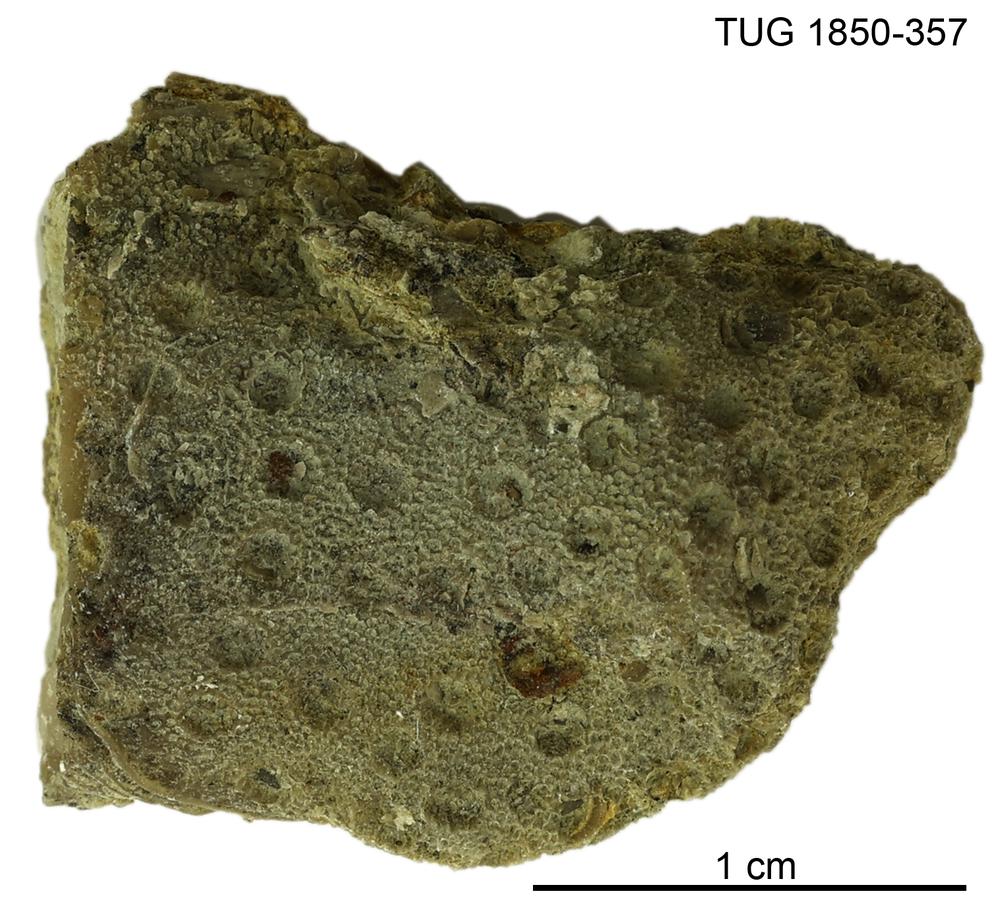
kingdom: Animalia
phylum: Cnidaria
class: Anthozoa
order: Heliolitina
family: Heliolitidae
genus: Heliolites
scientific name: Heliolites
